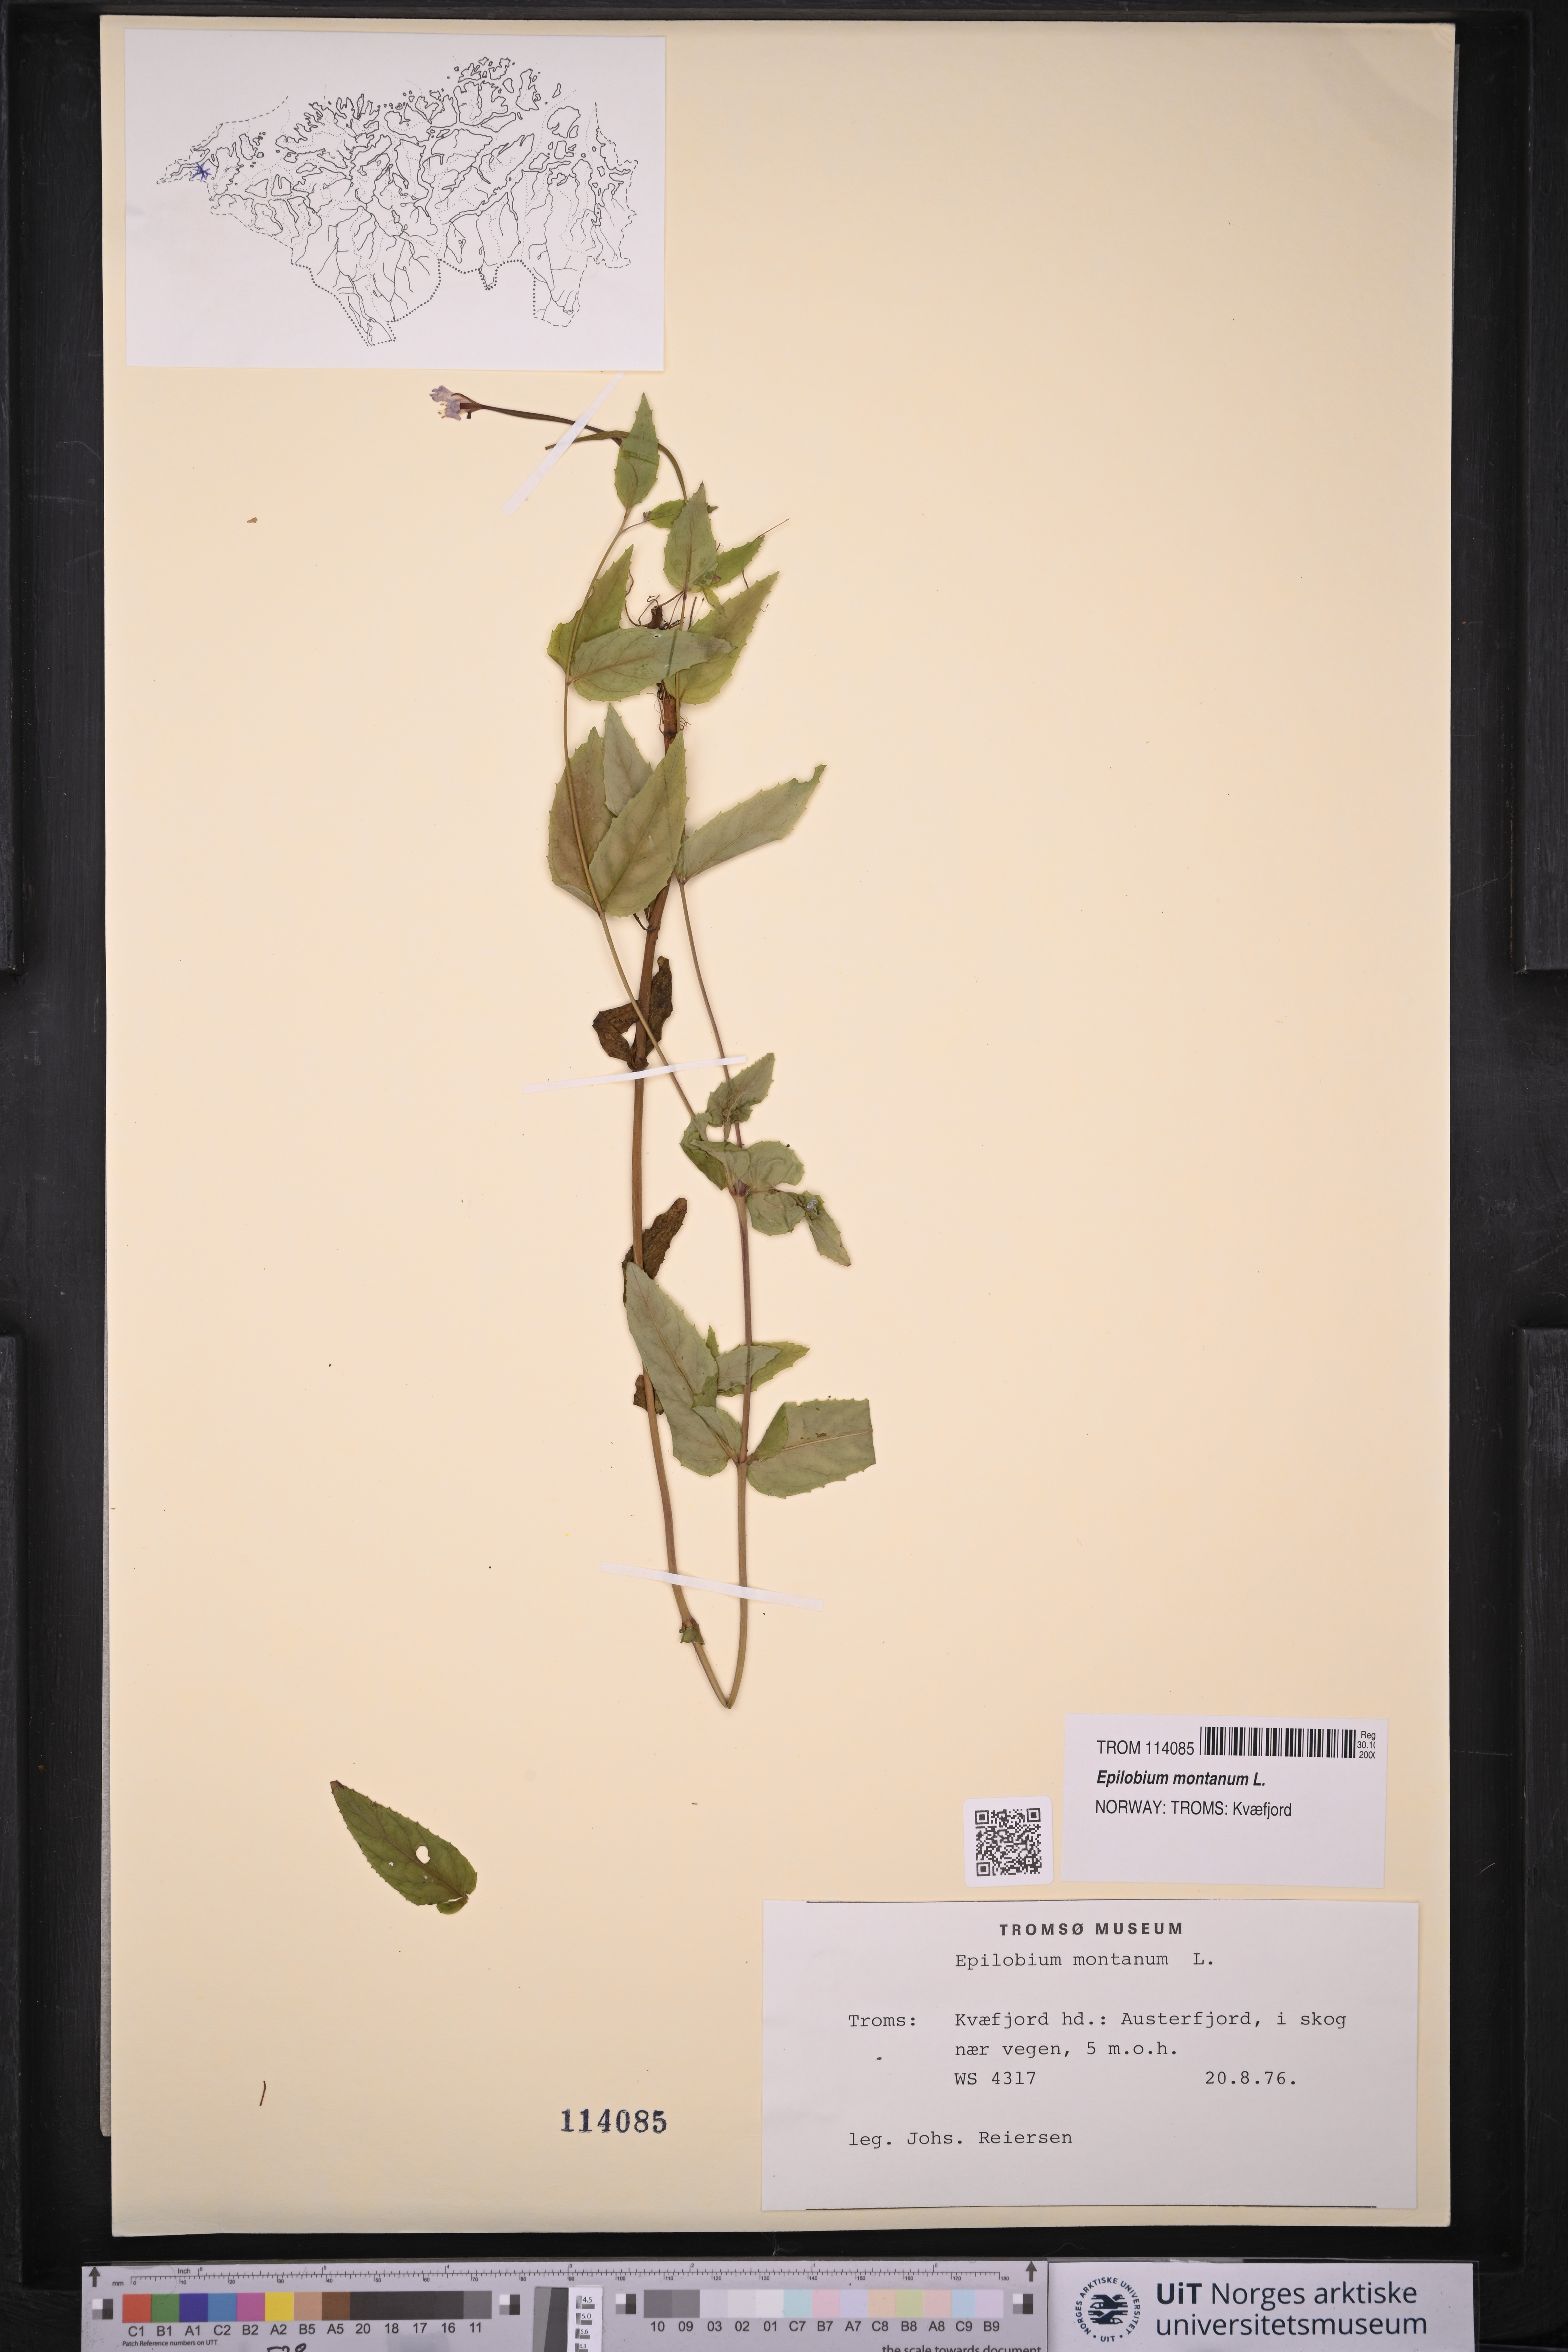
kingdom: Plantae
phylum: Tracheophyta
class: Magnoliopsida
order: Myrtales
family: Onagraceae
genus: Epilobium
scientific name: Epilobium montanum
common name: Broad-leaved willowherb
